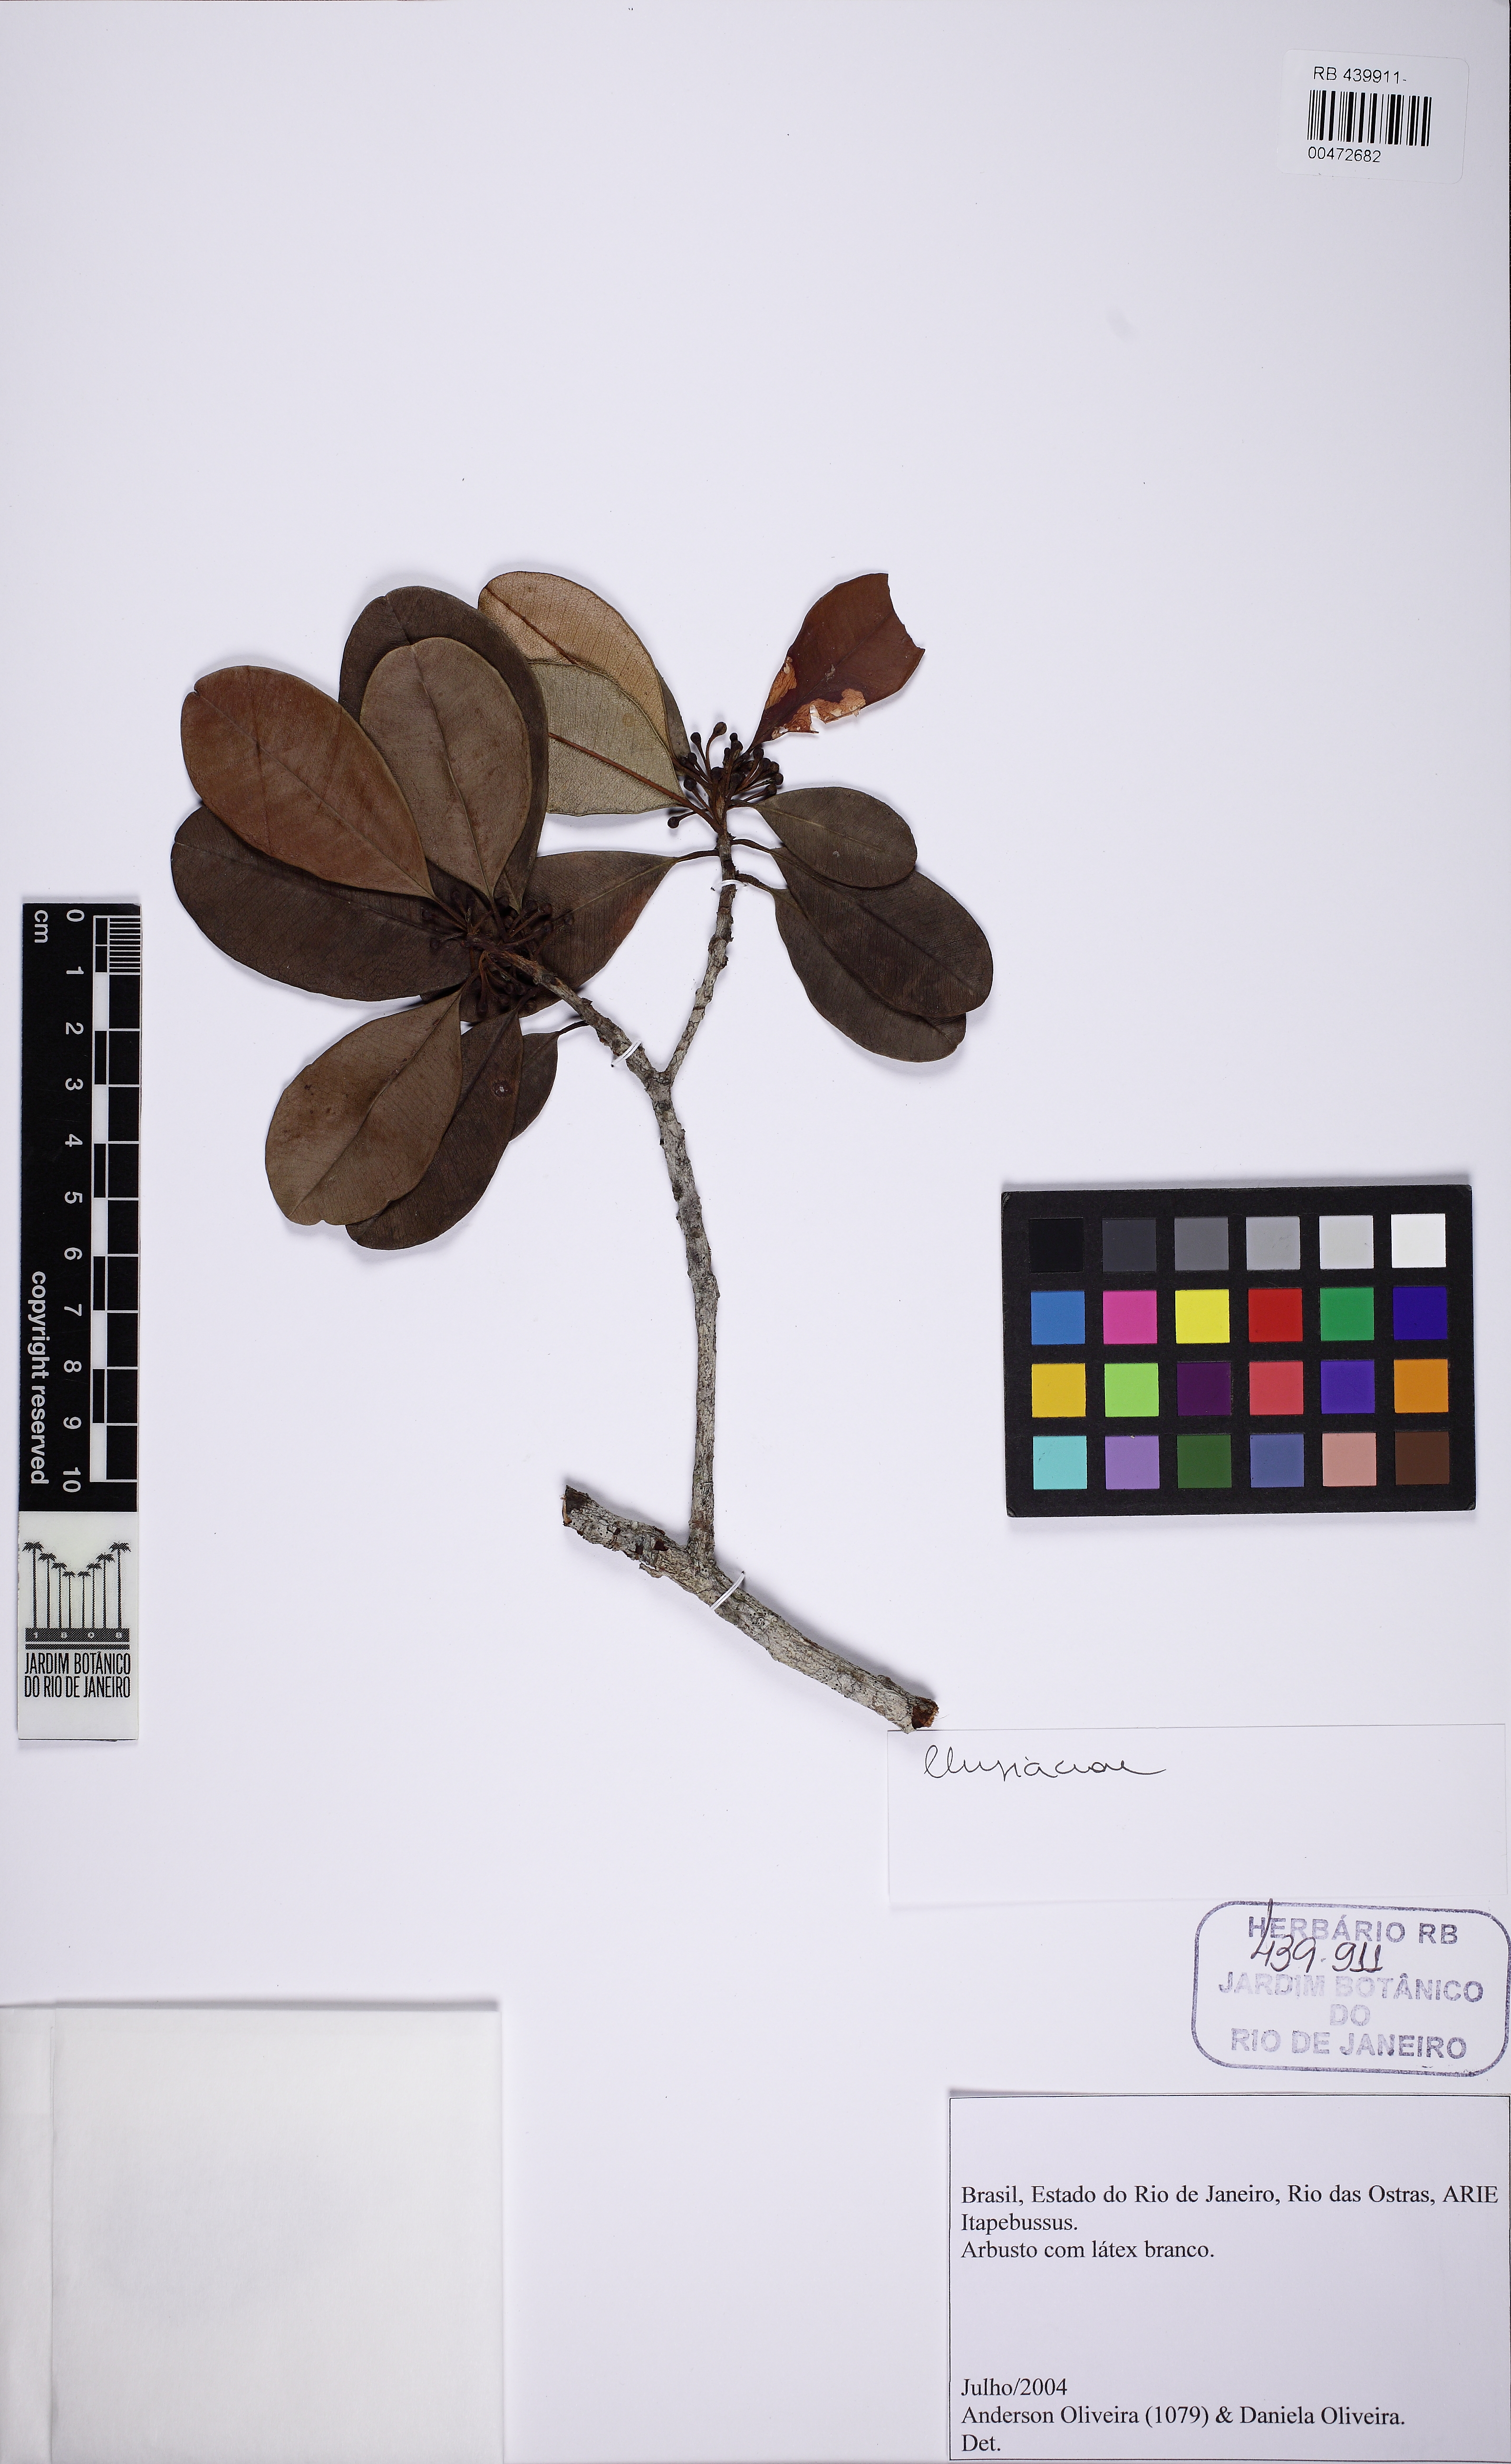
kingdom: Plantae
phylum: Tracheophyta
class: Magnoliopsida
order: Malpighiales
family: Clusiaceae
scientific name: Clusiaceae
